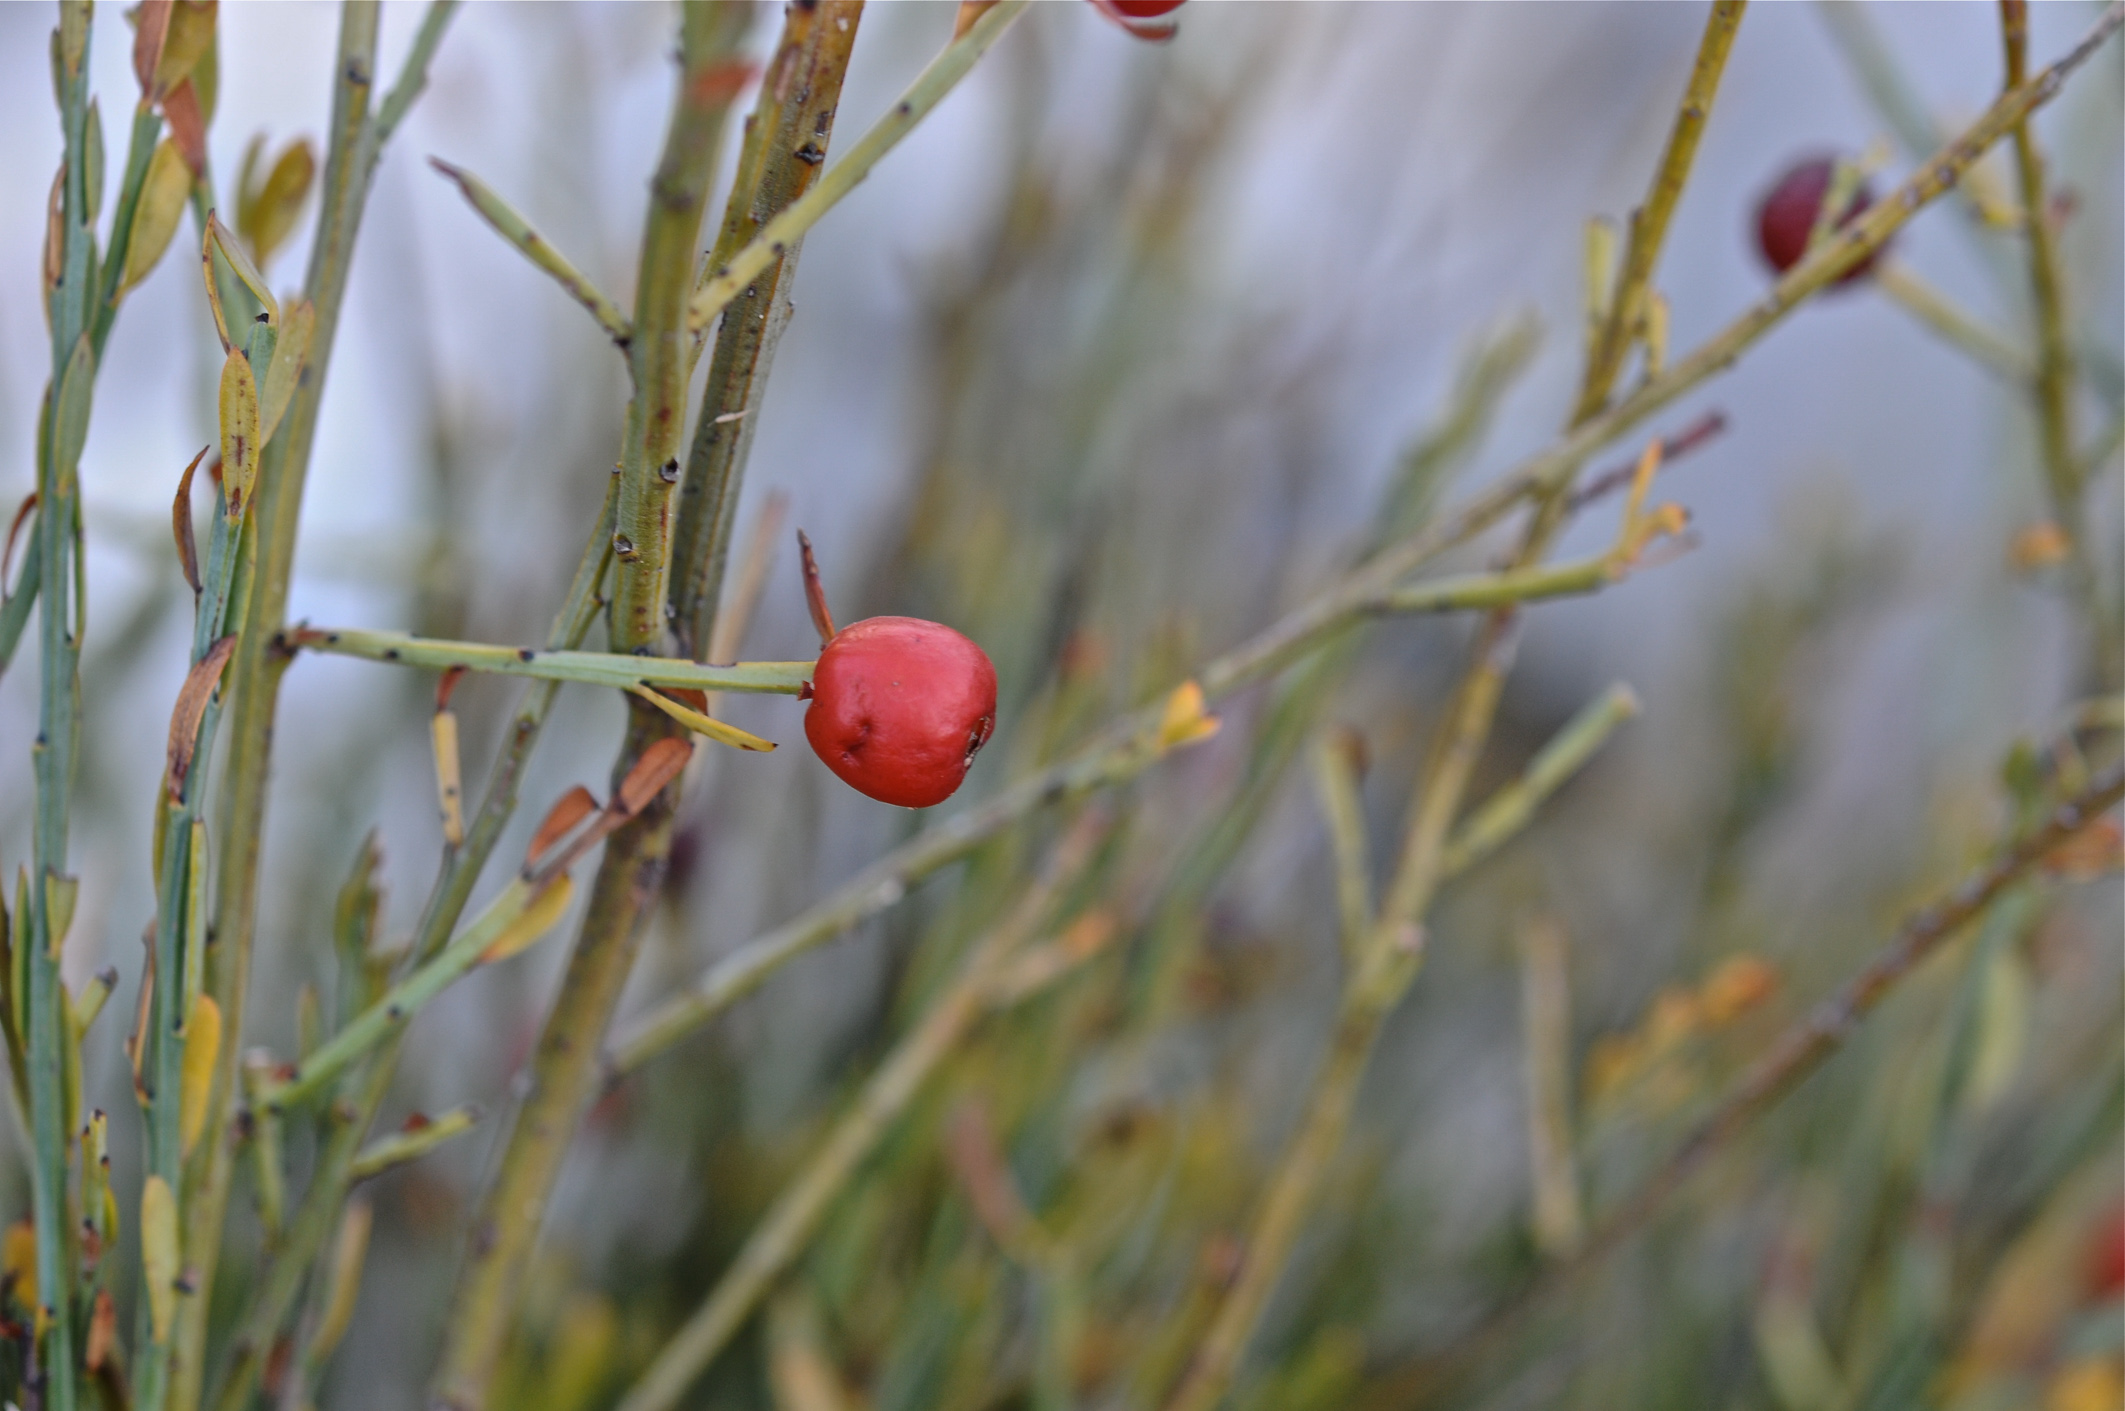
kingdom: Plantae
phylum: Tracheophyta
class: Magnoliopsida
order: Santalales
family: Santalaceae
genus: Osyris
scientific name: Osyris alba
